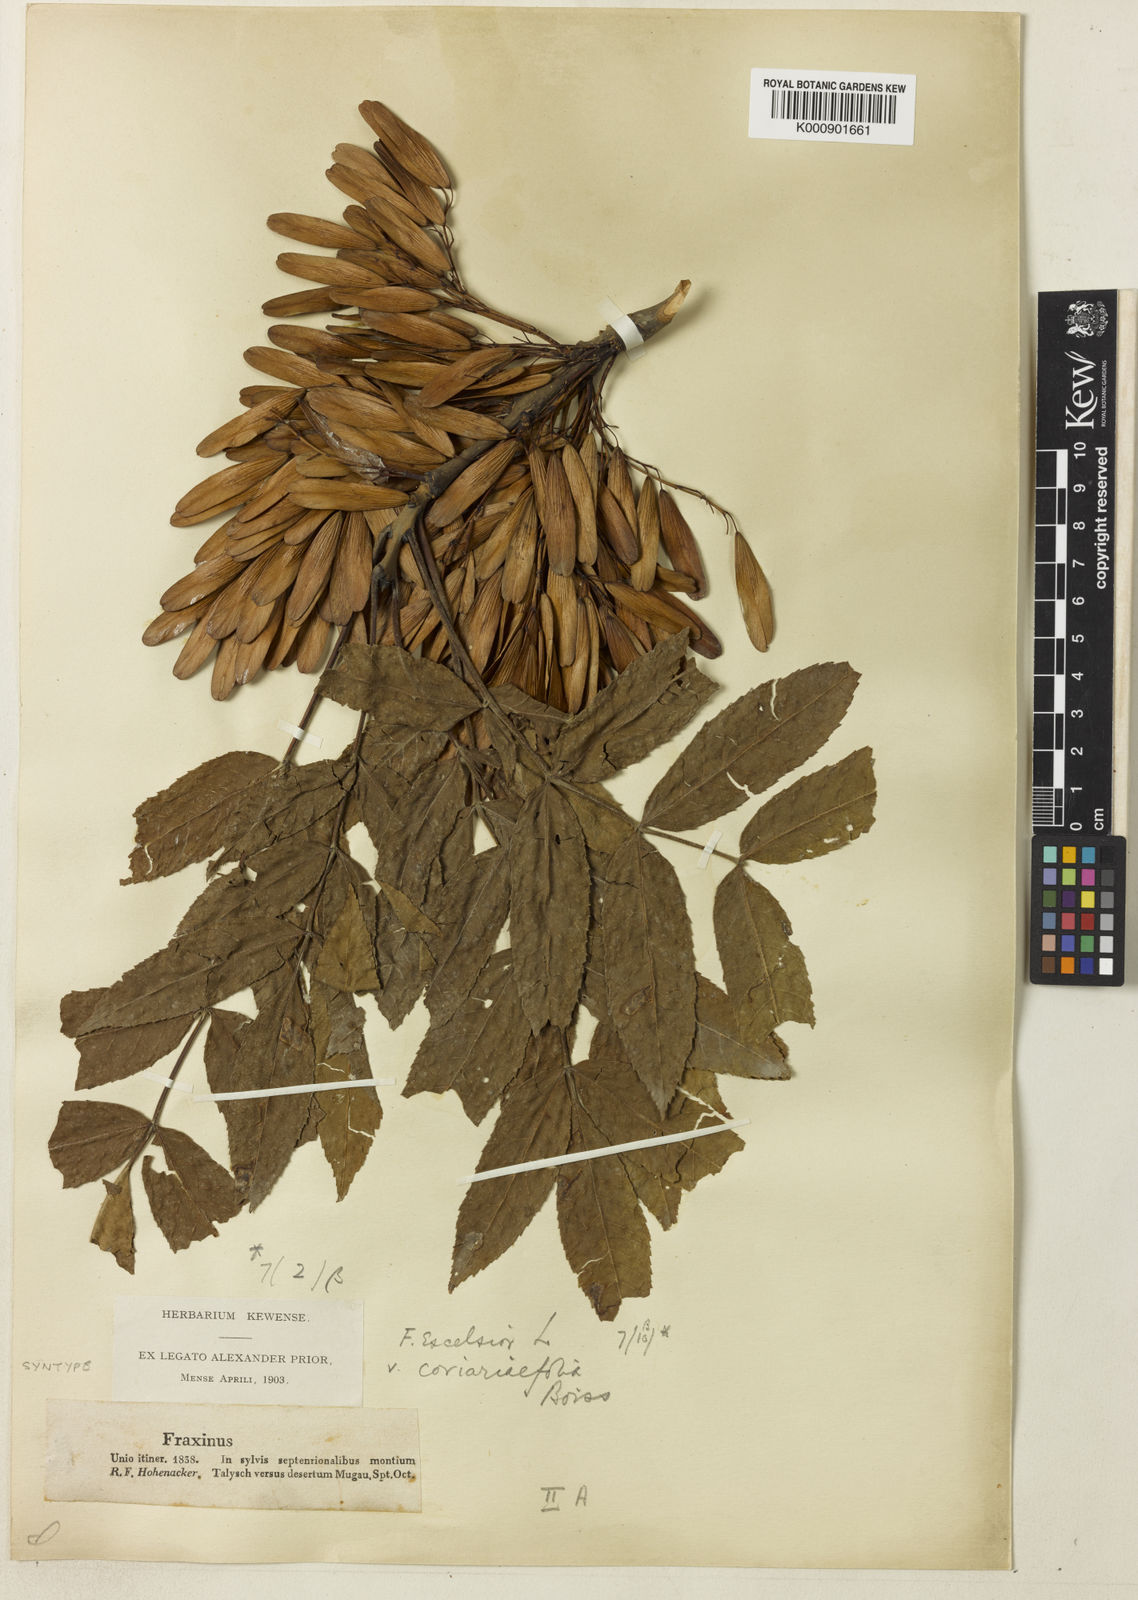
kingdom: Plantae
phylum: Tracheophyta
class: Magnoliopsida
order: Lamiales
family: Oleaceae
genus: Fraxinus
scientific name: Fraxinus excelsior
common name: European ash
